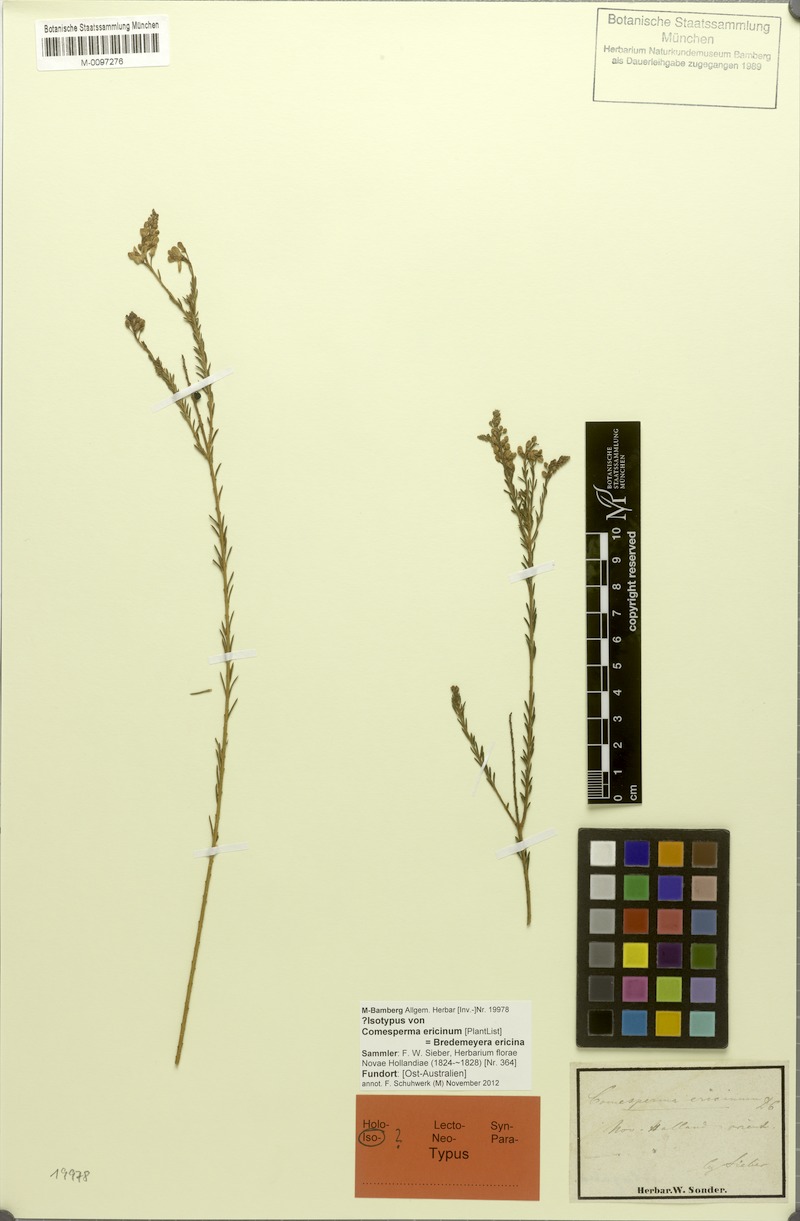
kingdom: Plantae
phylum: Tracheophyta
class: Magnoliopsida
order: Fabales
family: Polygalaceae
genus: Comesperma
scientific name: Comesperma ericinum
